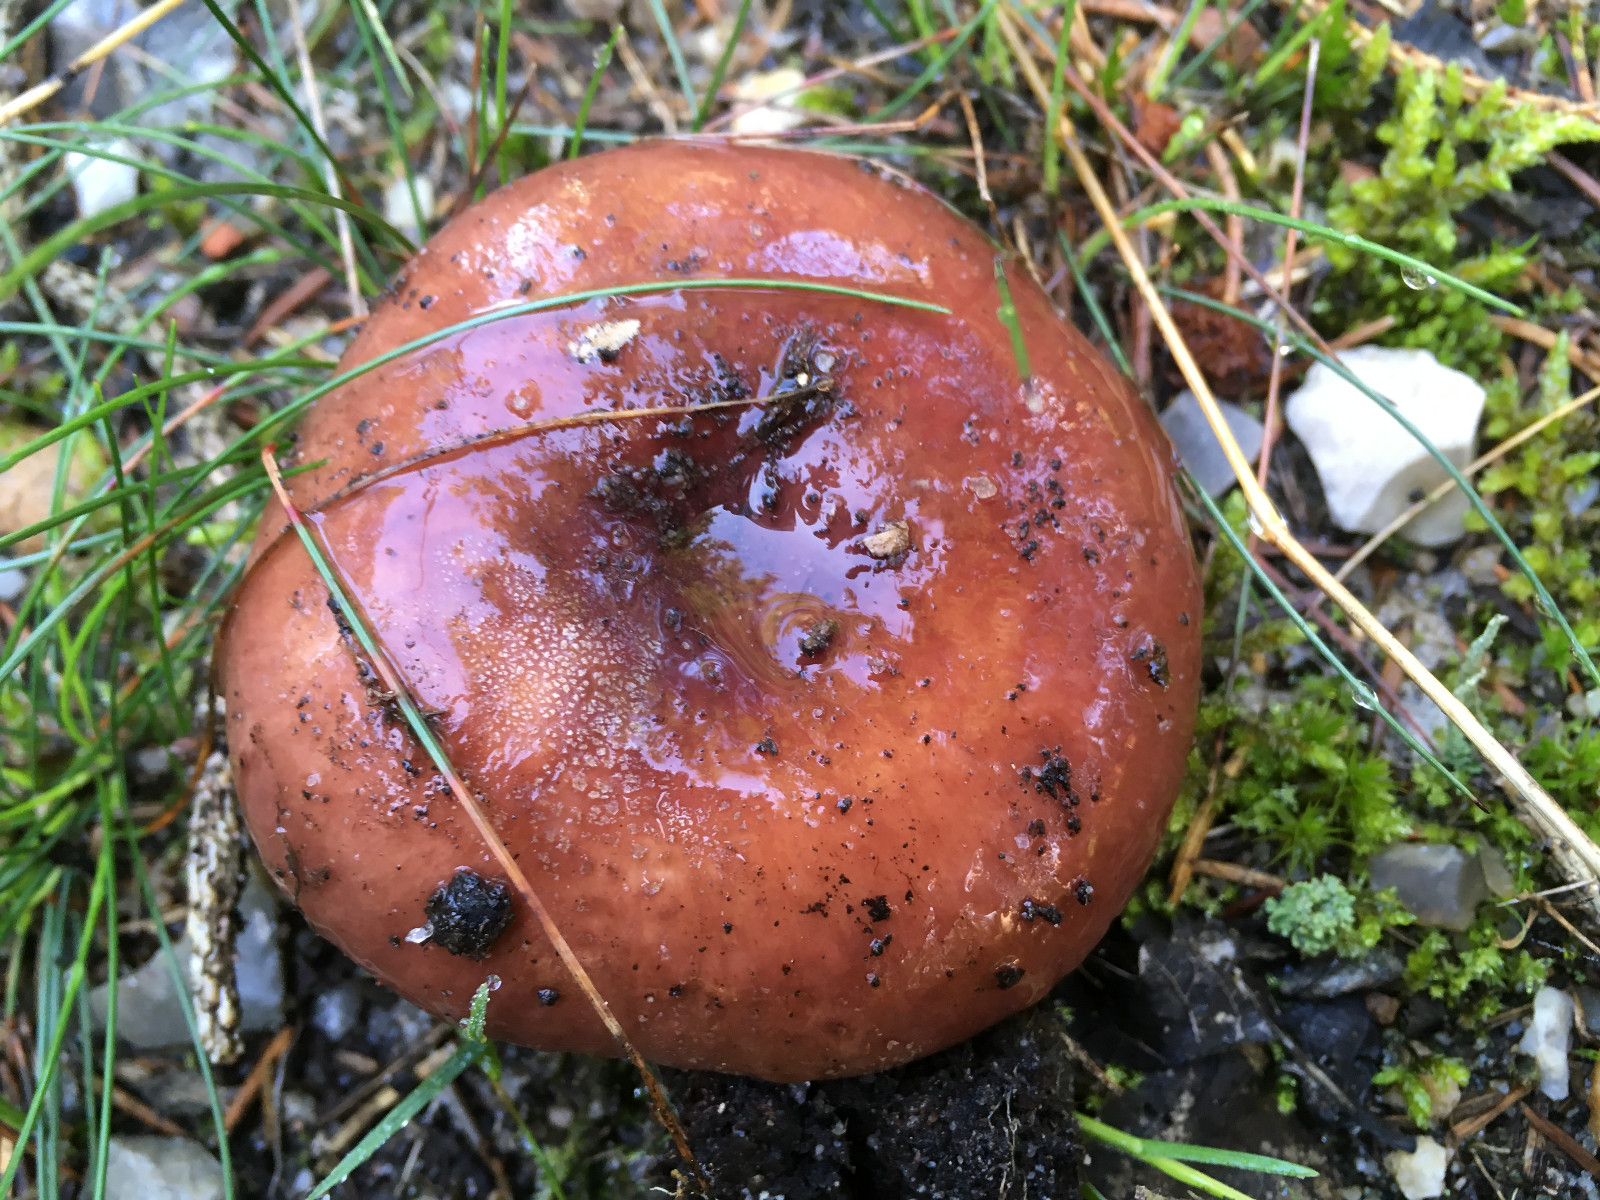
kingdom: Fungi
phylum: Basidiomycota
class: Agaricomycetes
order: Russulales
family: Russulaceae
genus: Russula
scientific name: Russula vesca
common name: spiselig skørhat
